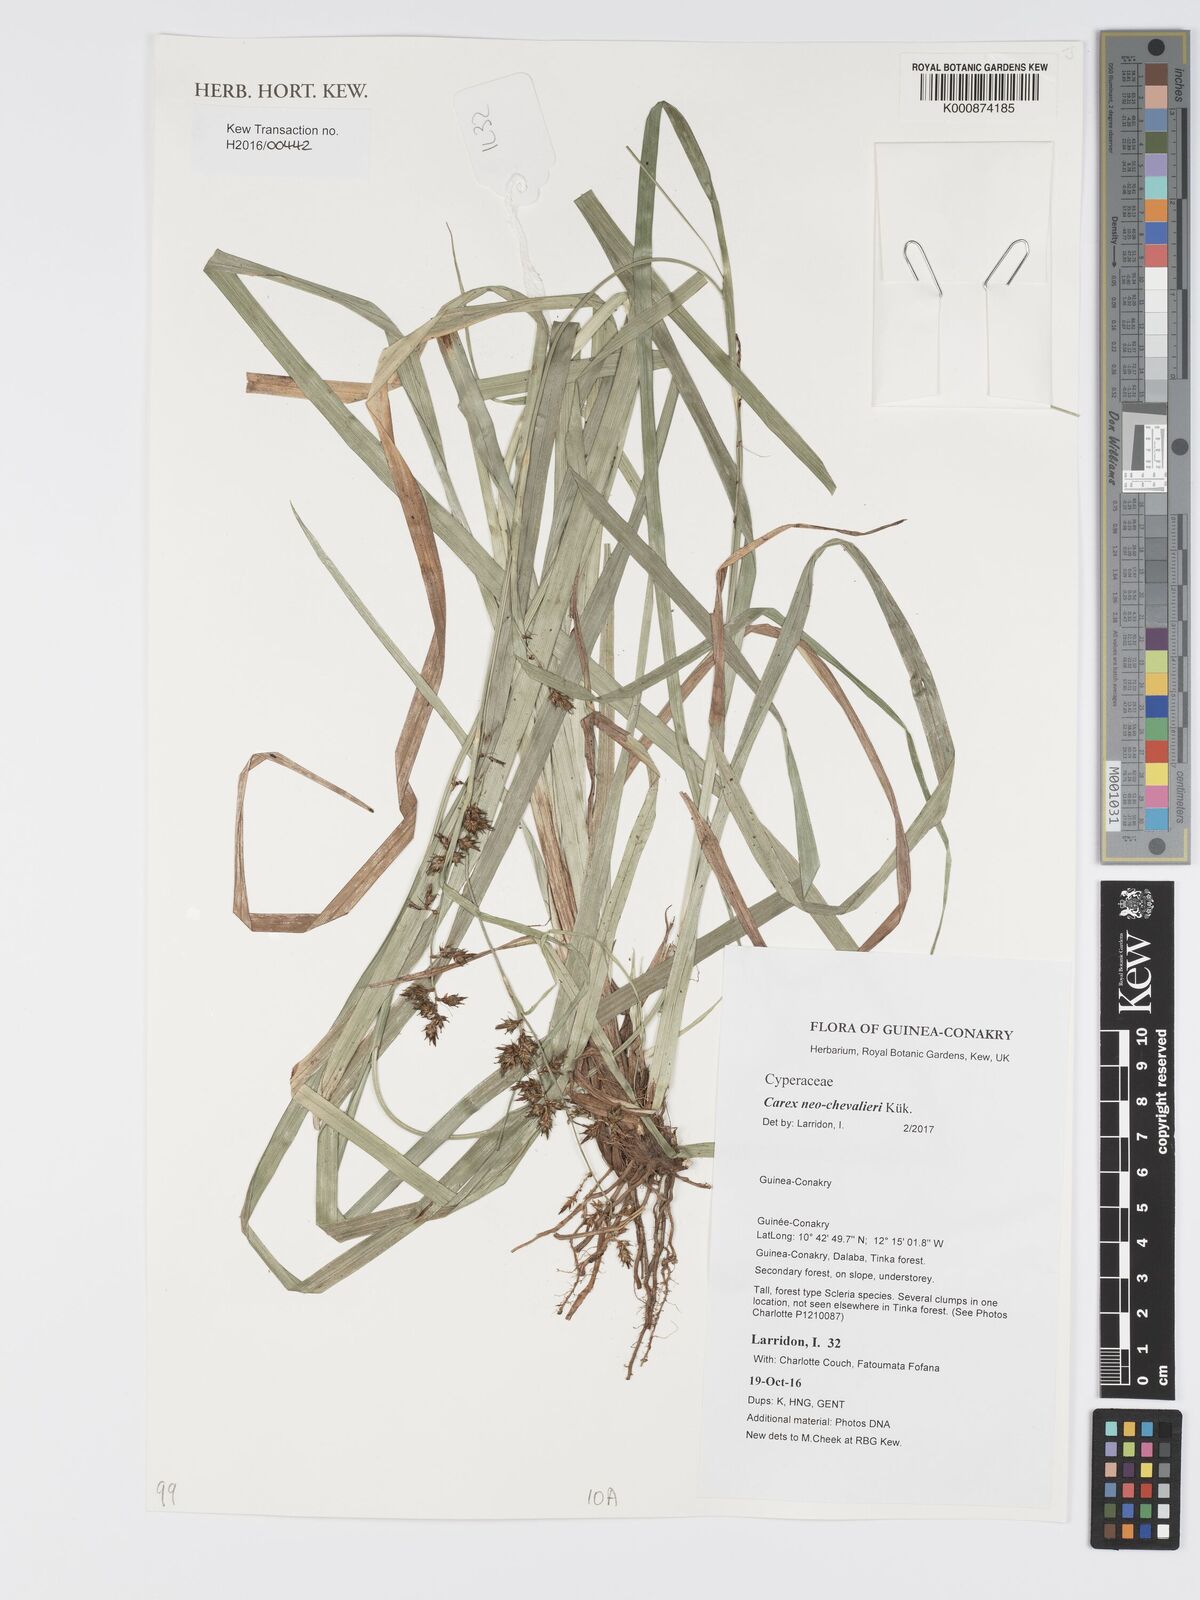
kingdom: Plantae
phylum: Tracheophyta
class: Liliopsida
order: Poales
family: Cyperaceae
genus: Carex
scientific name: Carex neochevalieri
